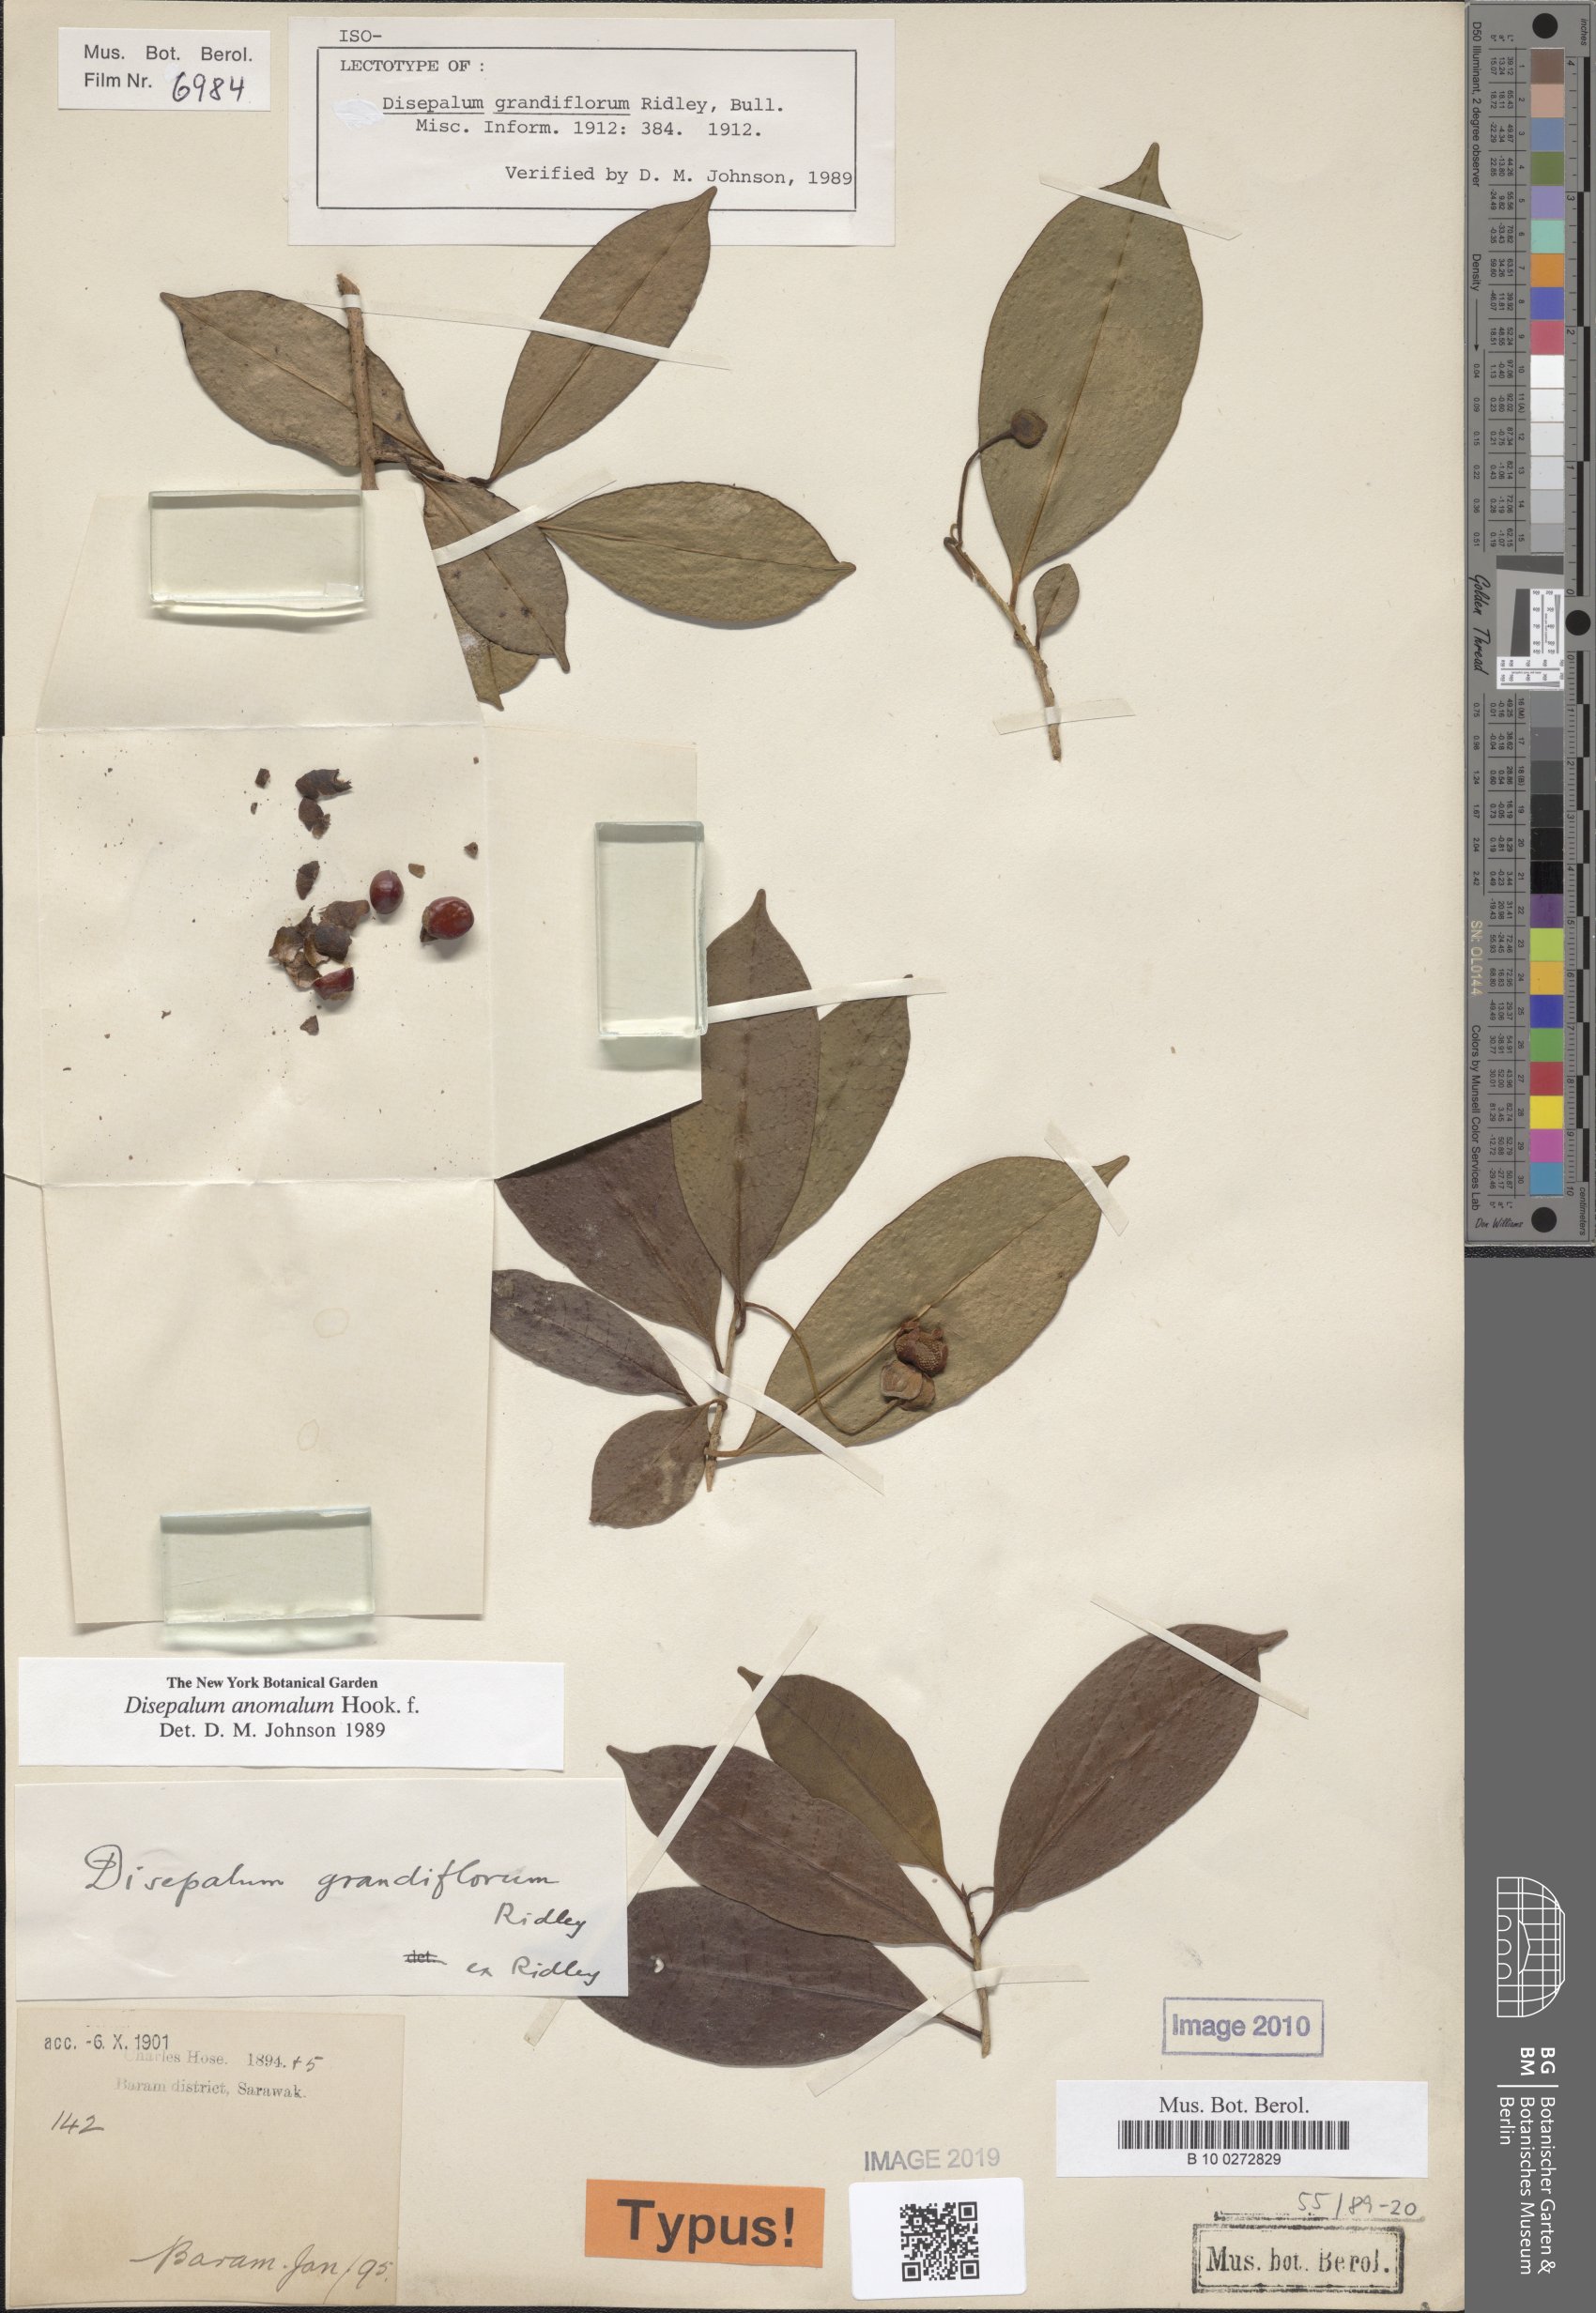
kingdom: Plantae
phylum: Tracheophyta
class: Magnoliopsida
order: Magnoliales
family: Annonaceae
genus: Disepalum
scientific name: Disepalum anomalum
